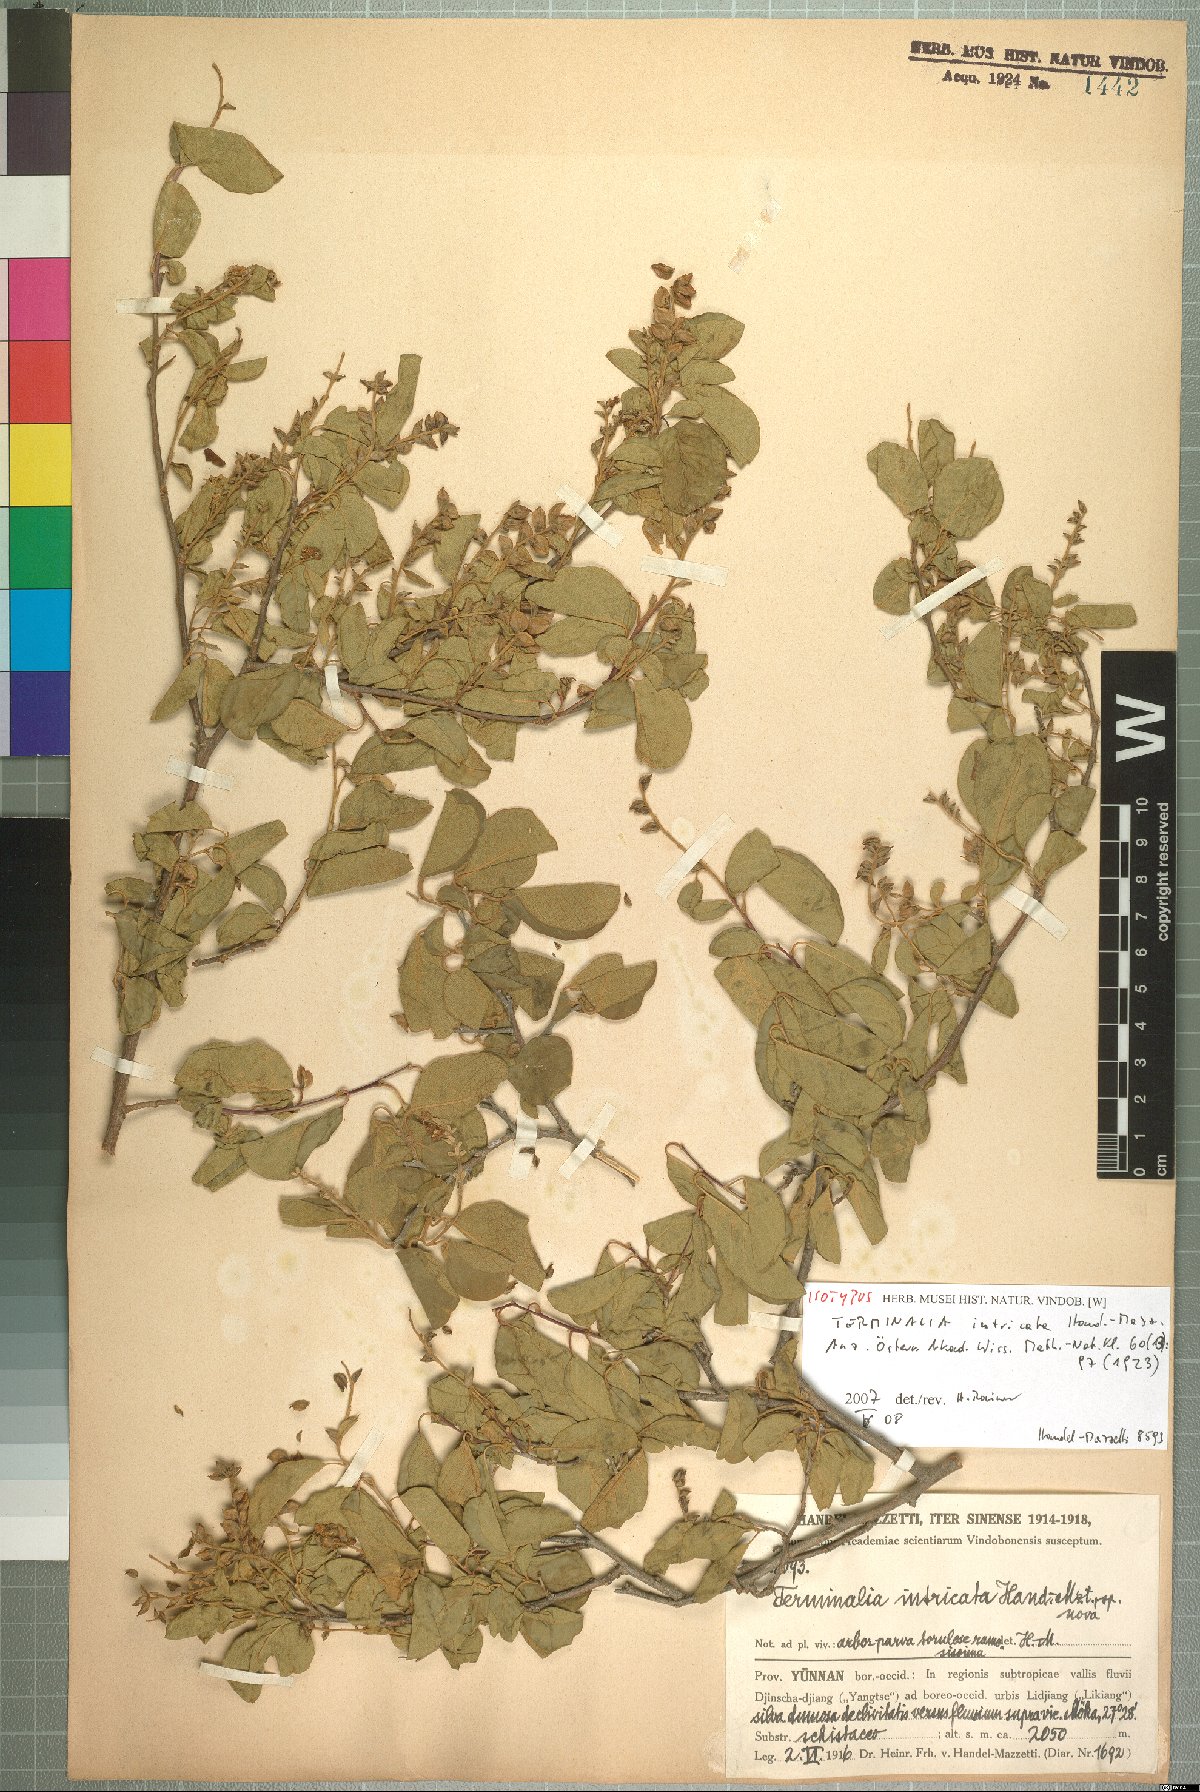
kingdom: Plantae
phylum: Tracheophyta
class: Magnoliopsida
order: Myrtales
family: Combretaceae
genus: Combretum
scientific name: Combretum wallichii
